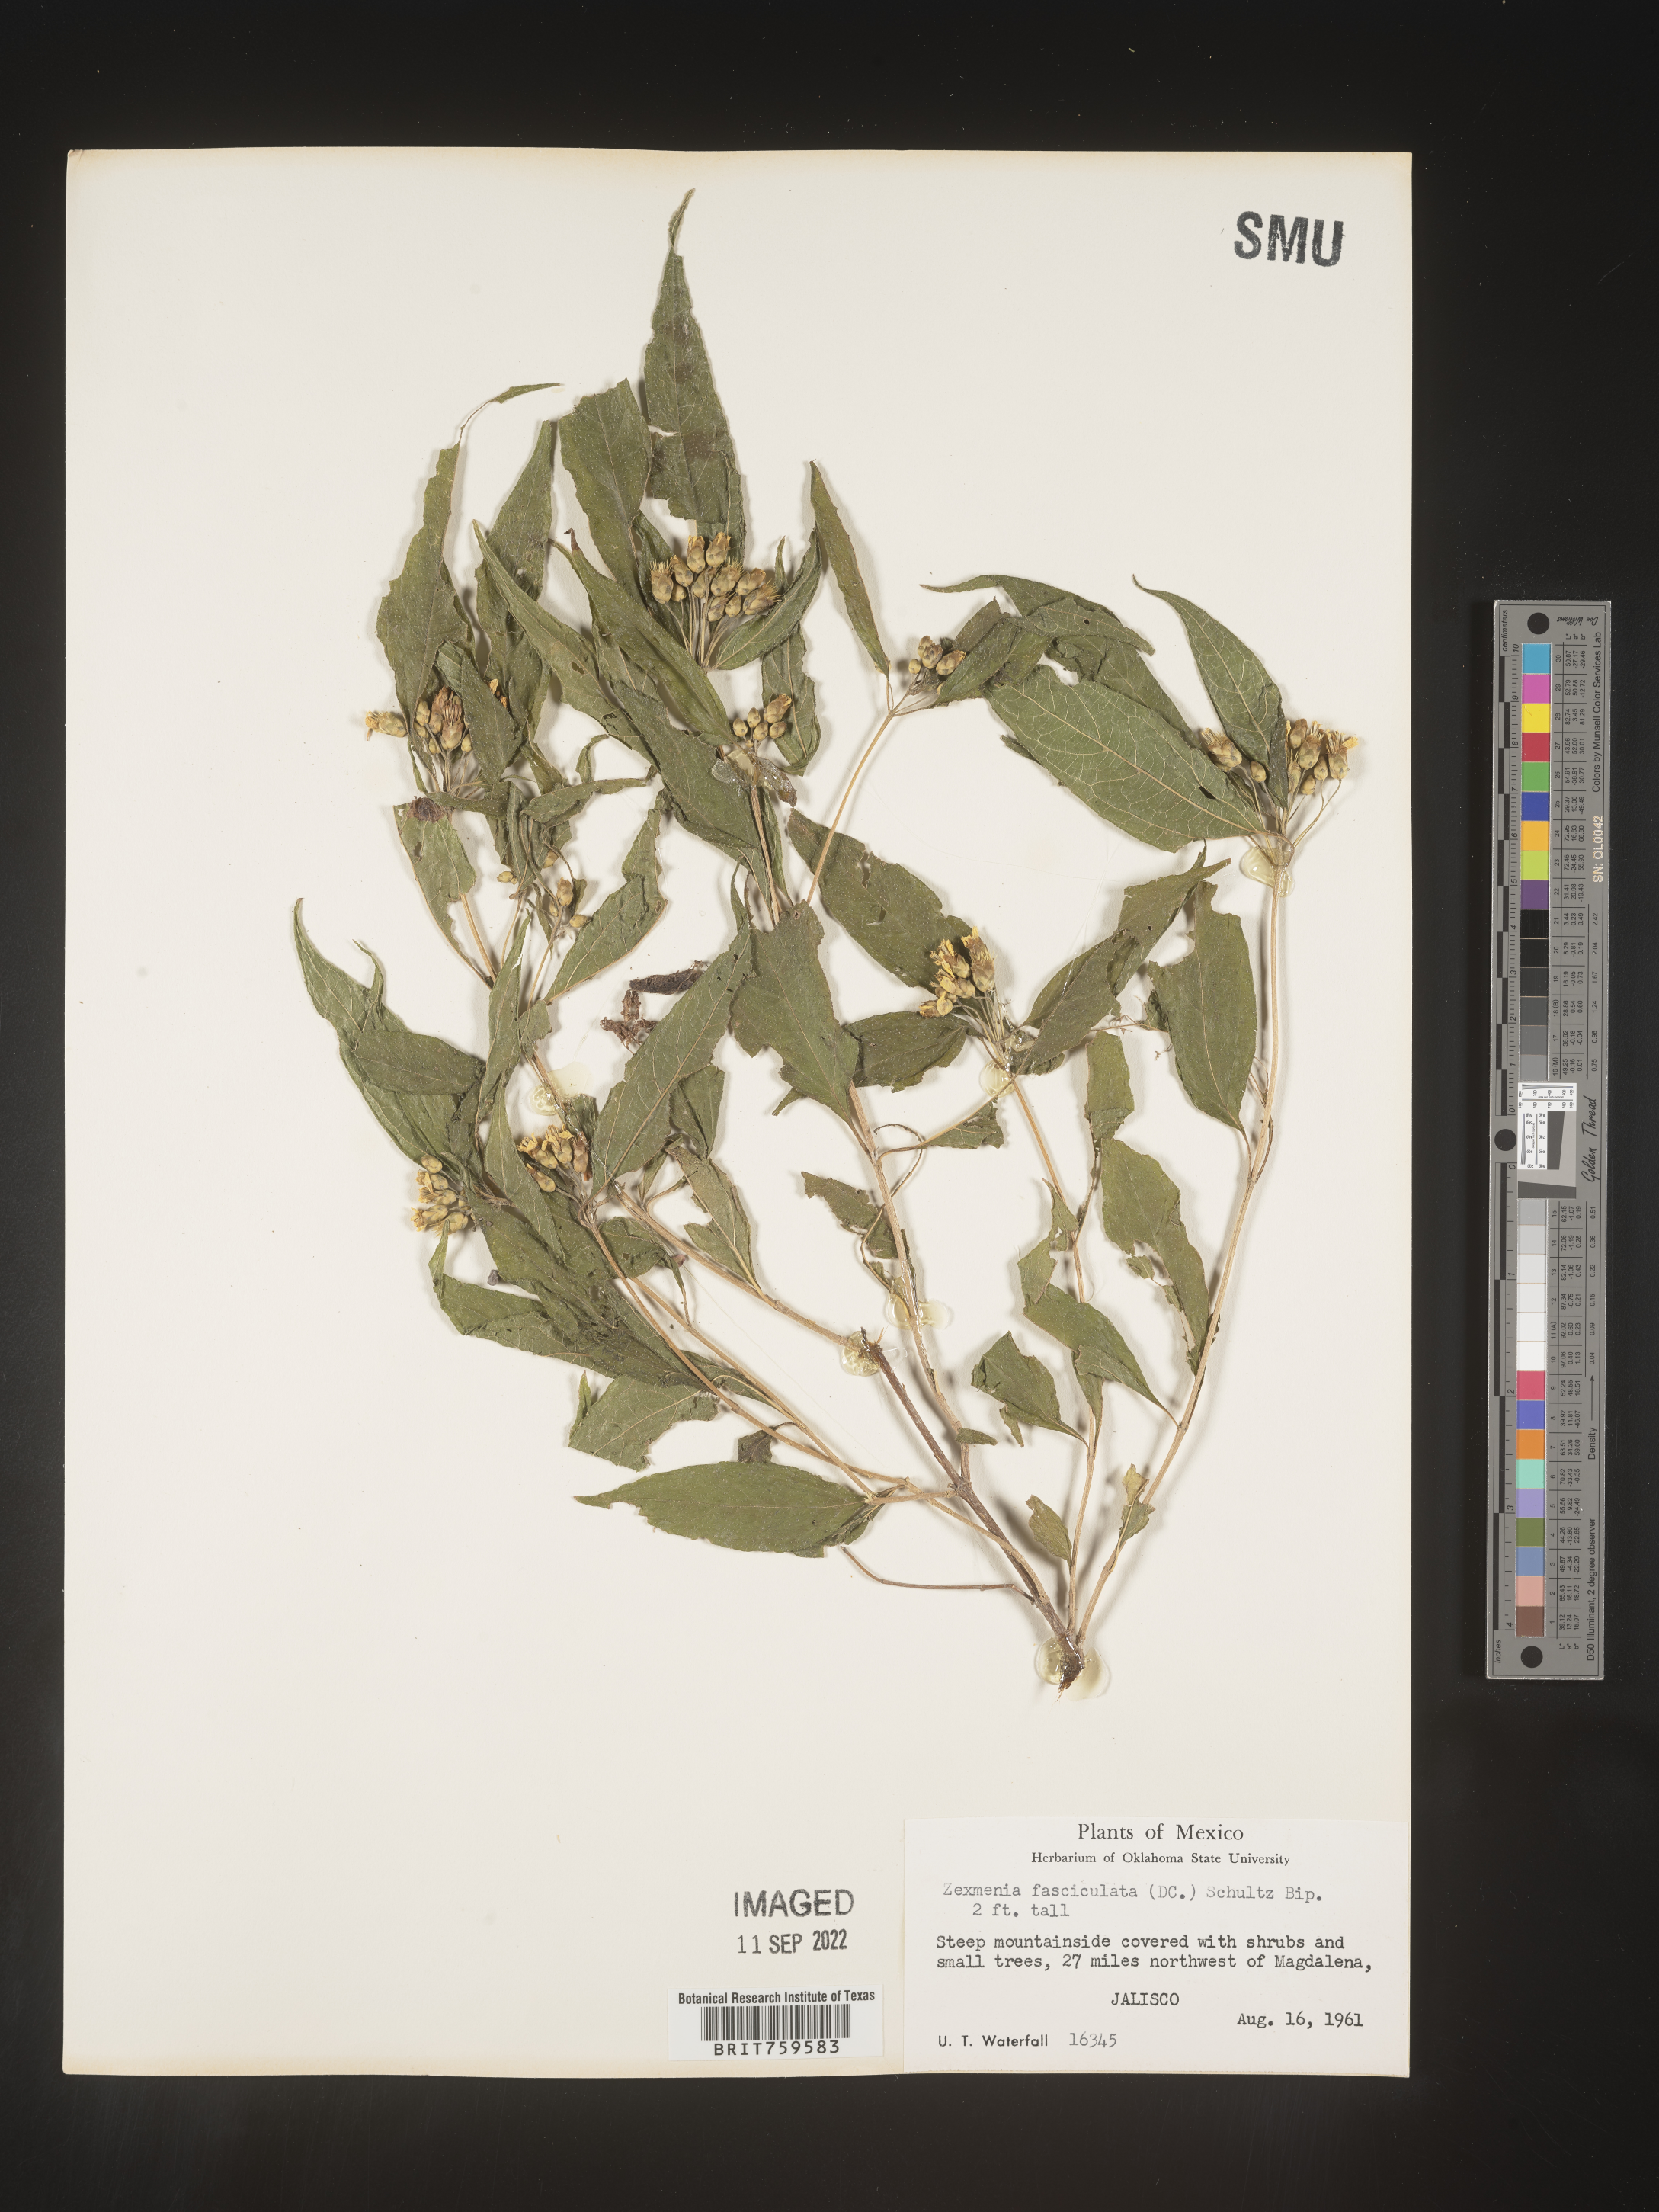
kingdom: Plantae
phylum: Tracheophyta
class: Magnoliopsida
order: Asterales
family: Asteraceae
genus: Zexmenia
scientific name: Zexmenia
